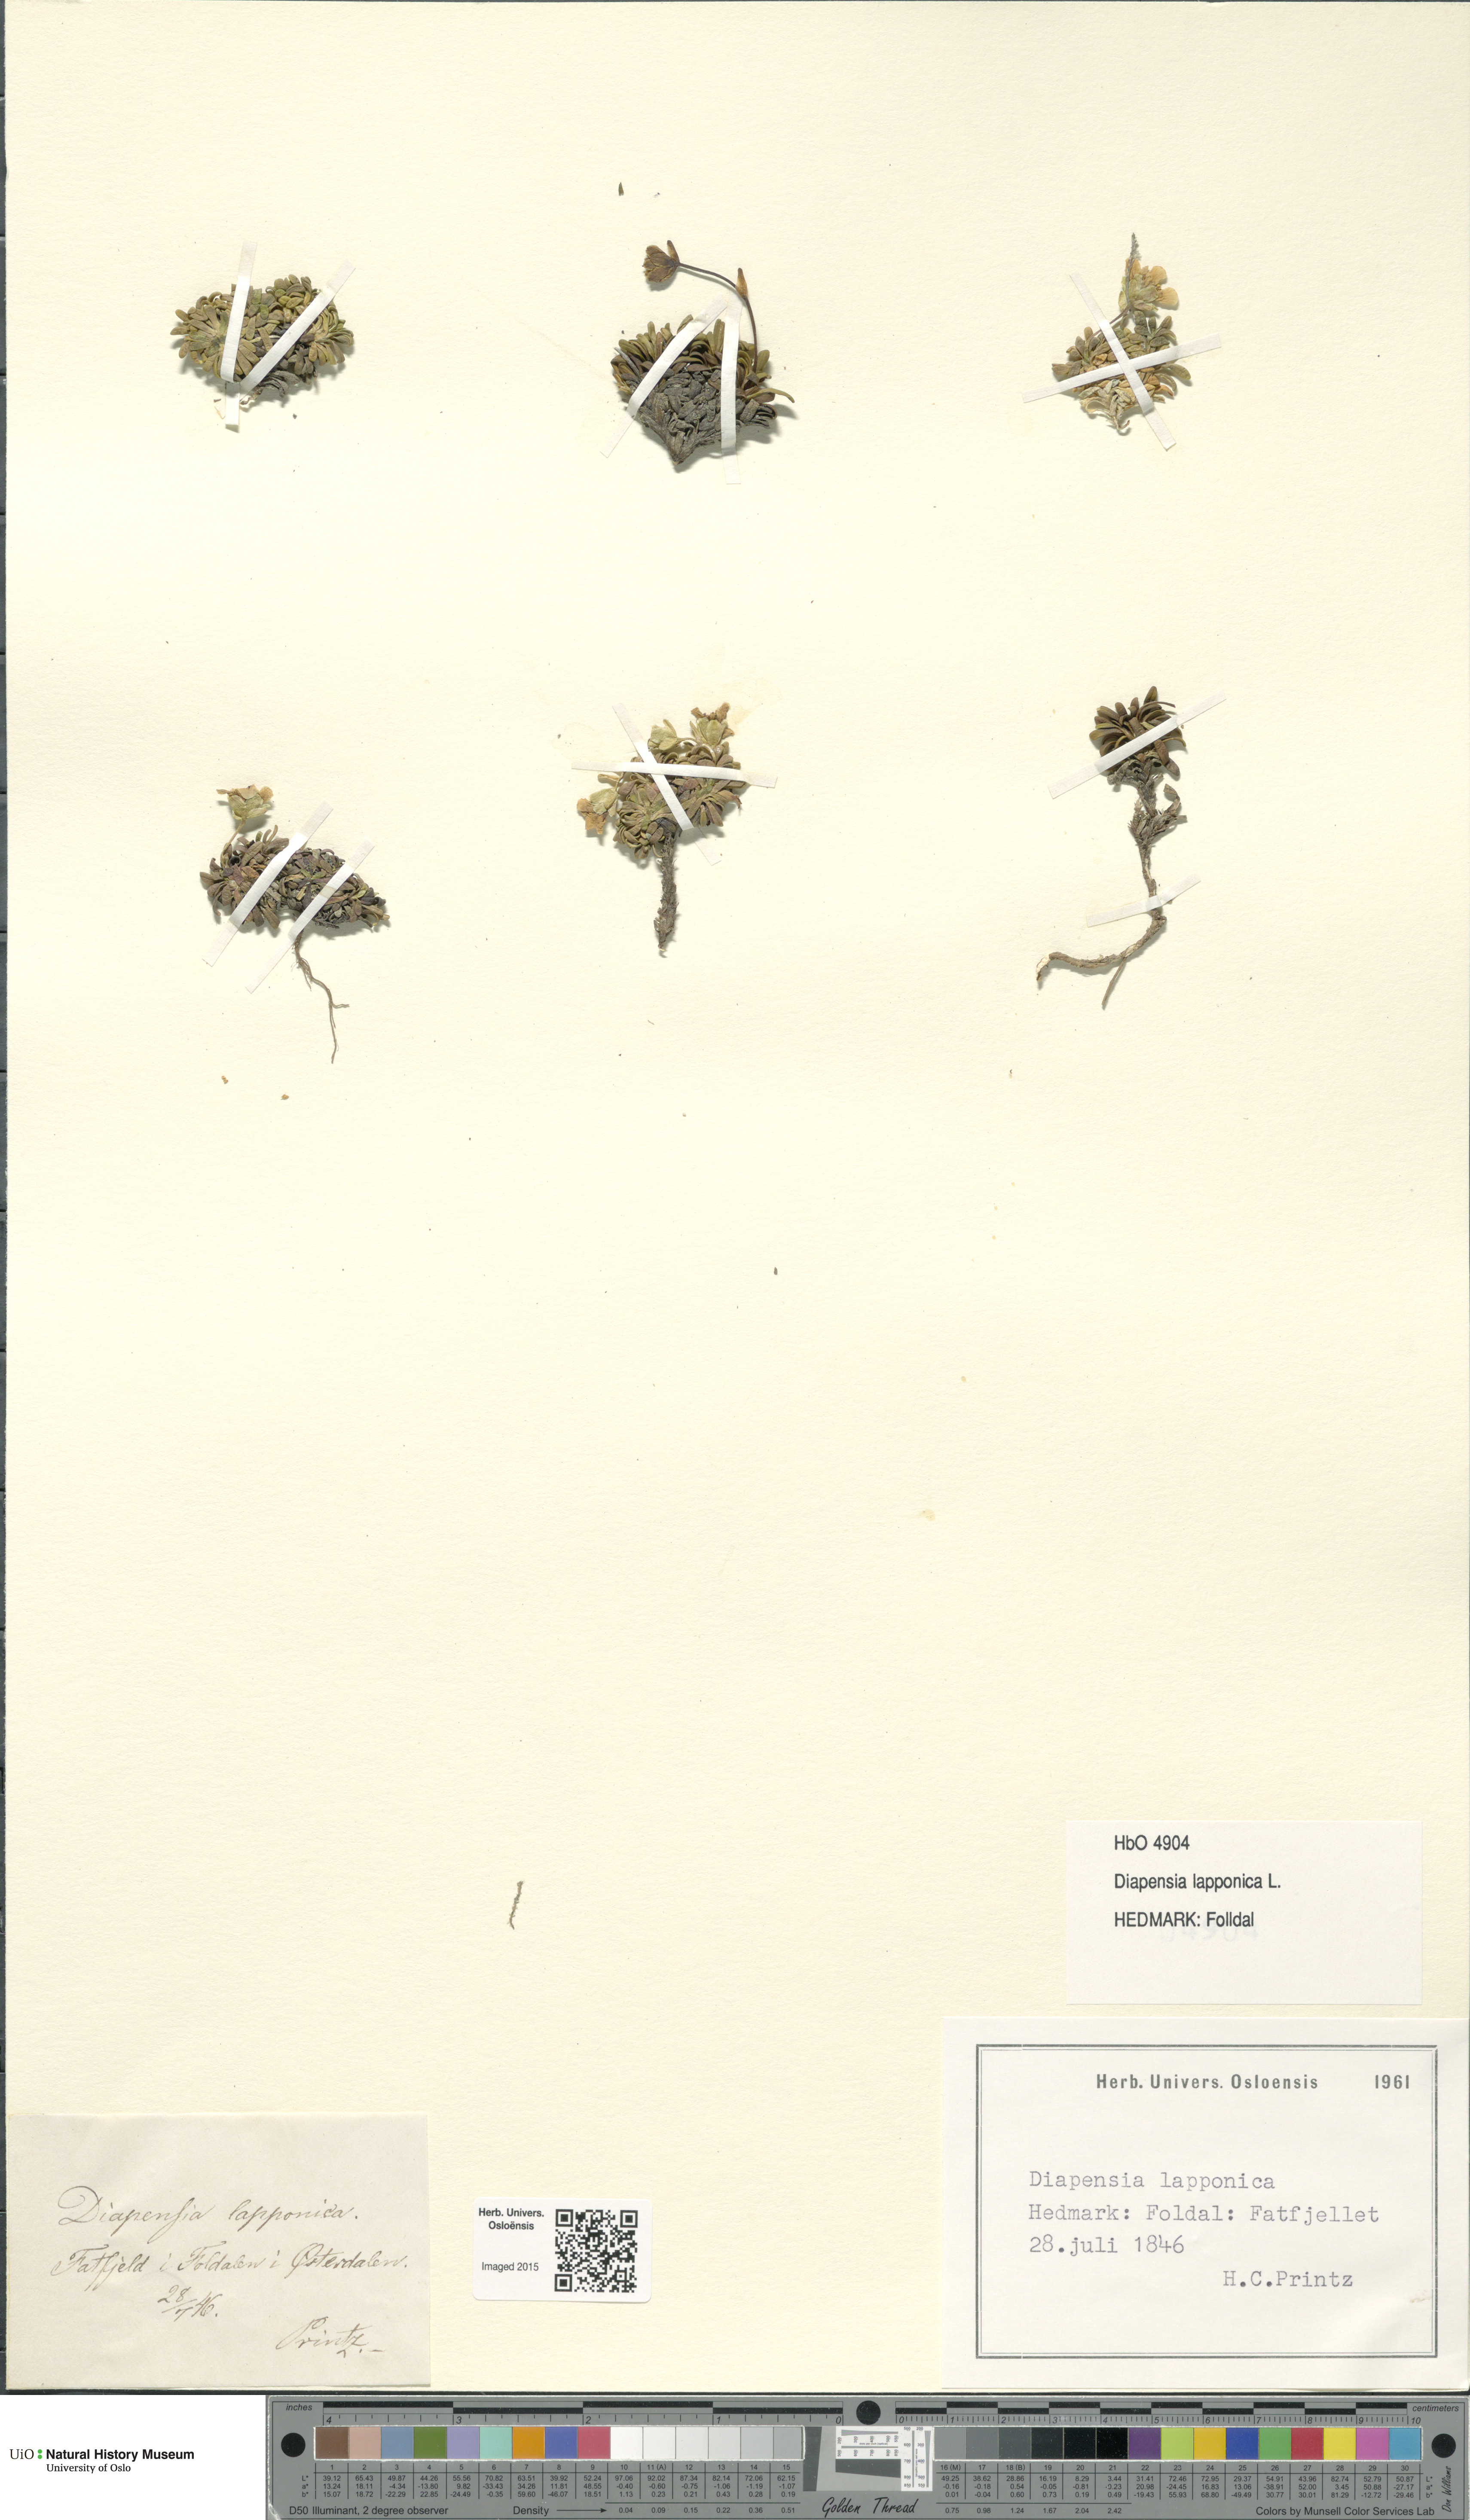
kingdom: Plantae
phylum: Tracheophyta
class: Magnoliopsida
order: Ericales
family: Diapensiaceae
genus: Diapensia
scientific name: Diapensia lapponica
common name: Diapensia
